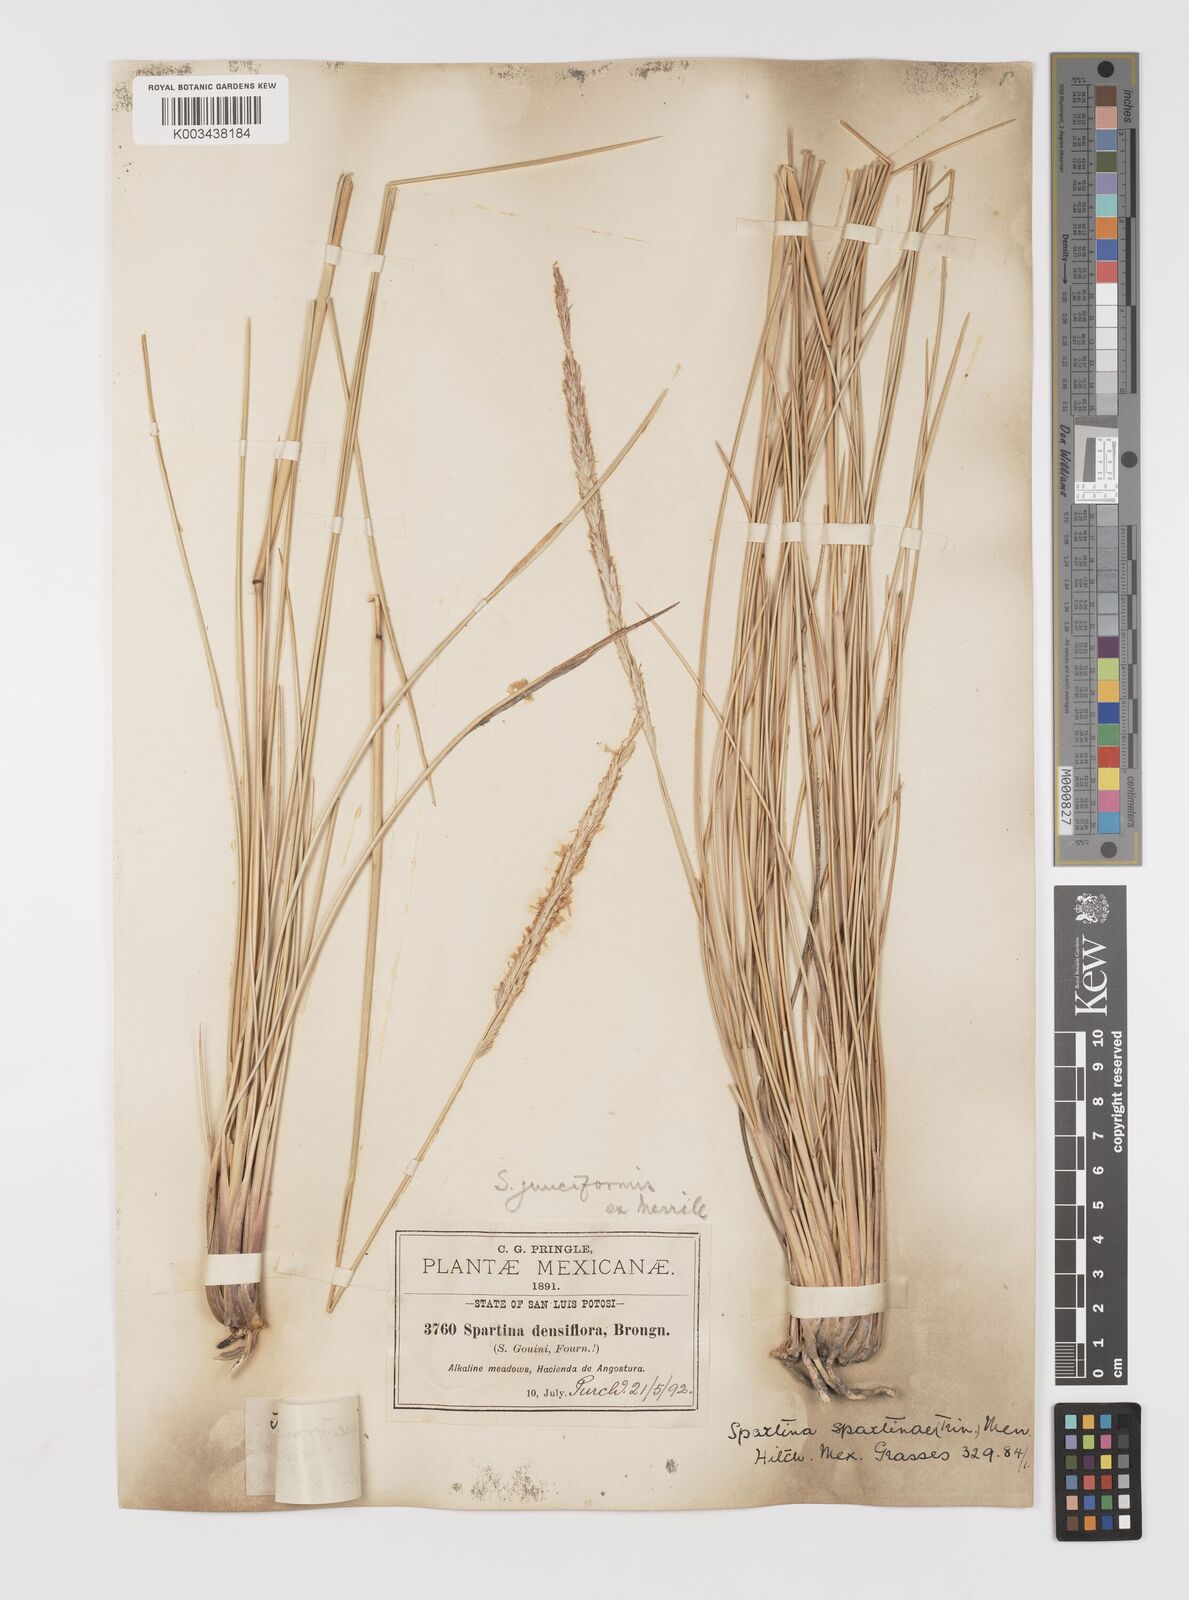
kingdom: Plantae
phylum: Tracheophyta
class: Liliopsida
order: Poales
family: Poaceae
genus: Sporobolus
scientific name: Sporobolus spartinae
